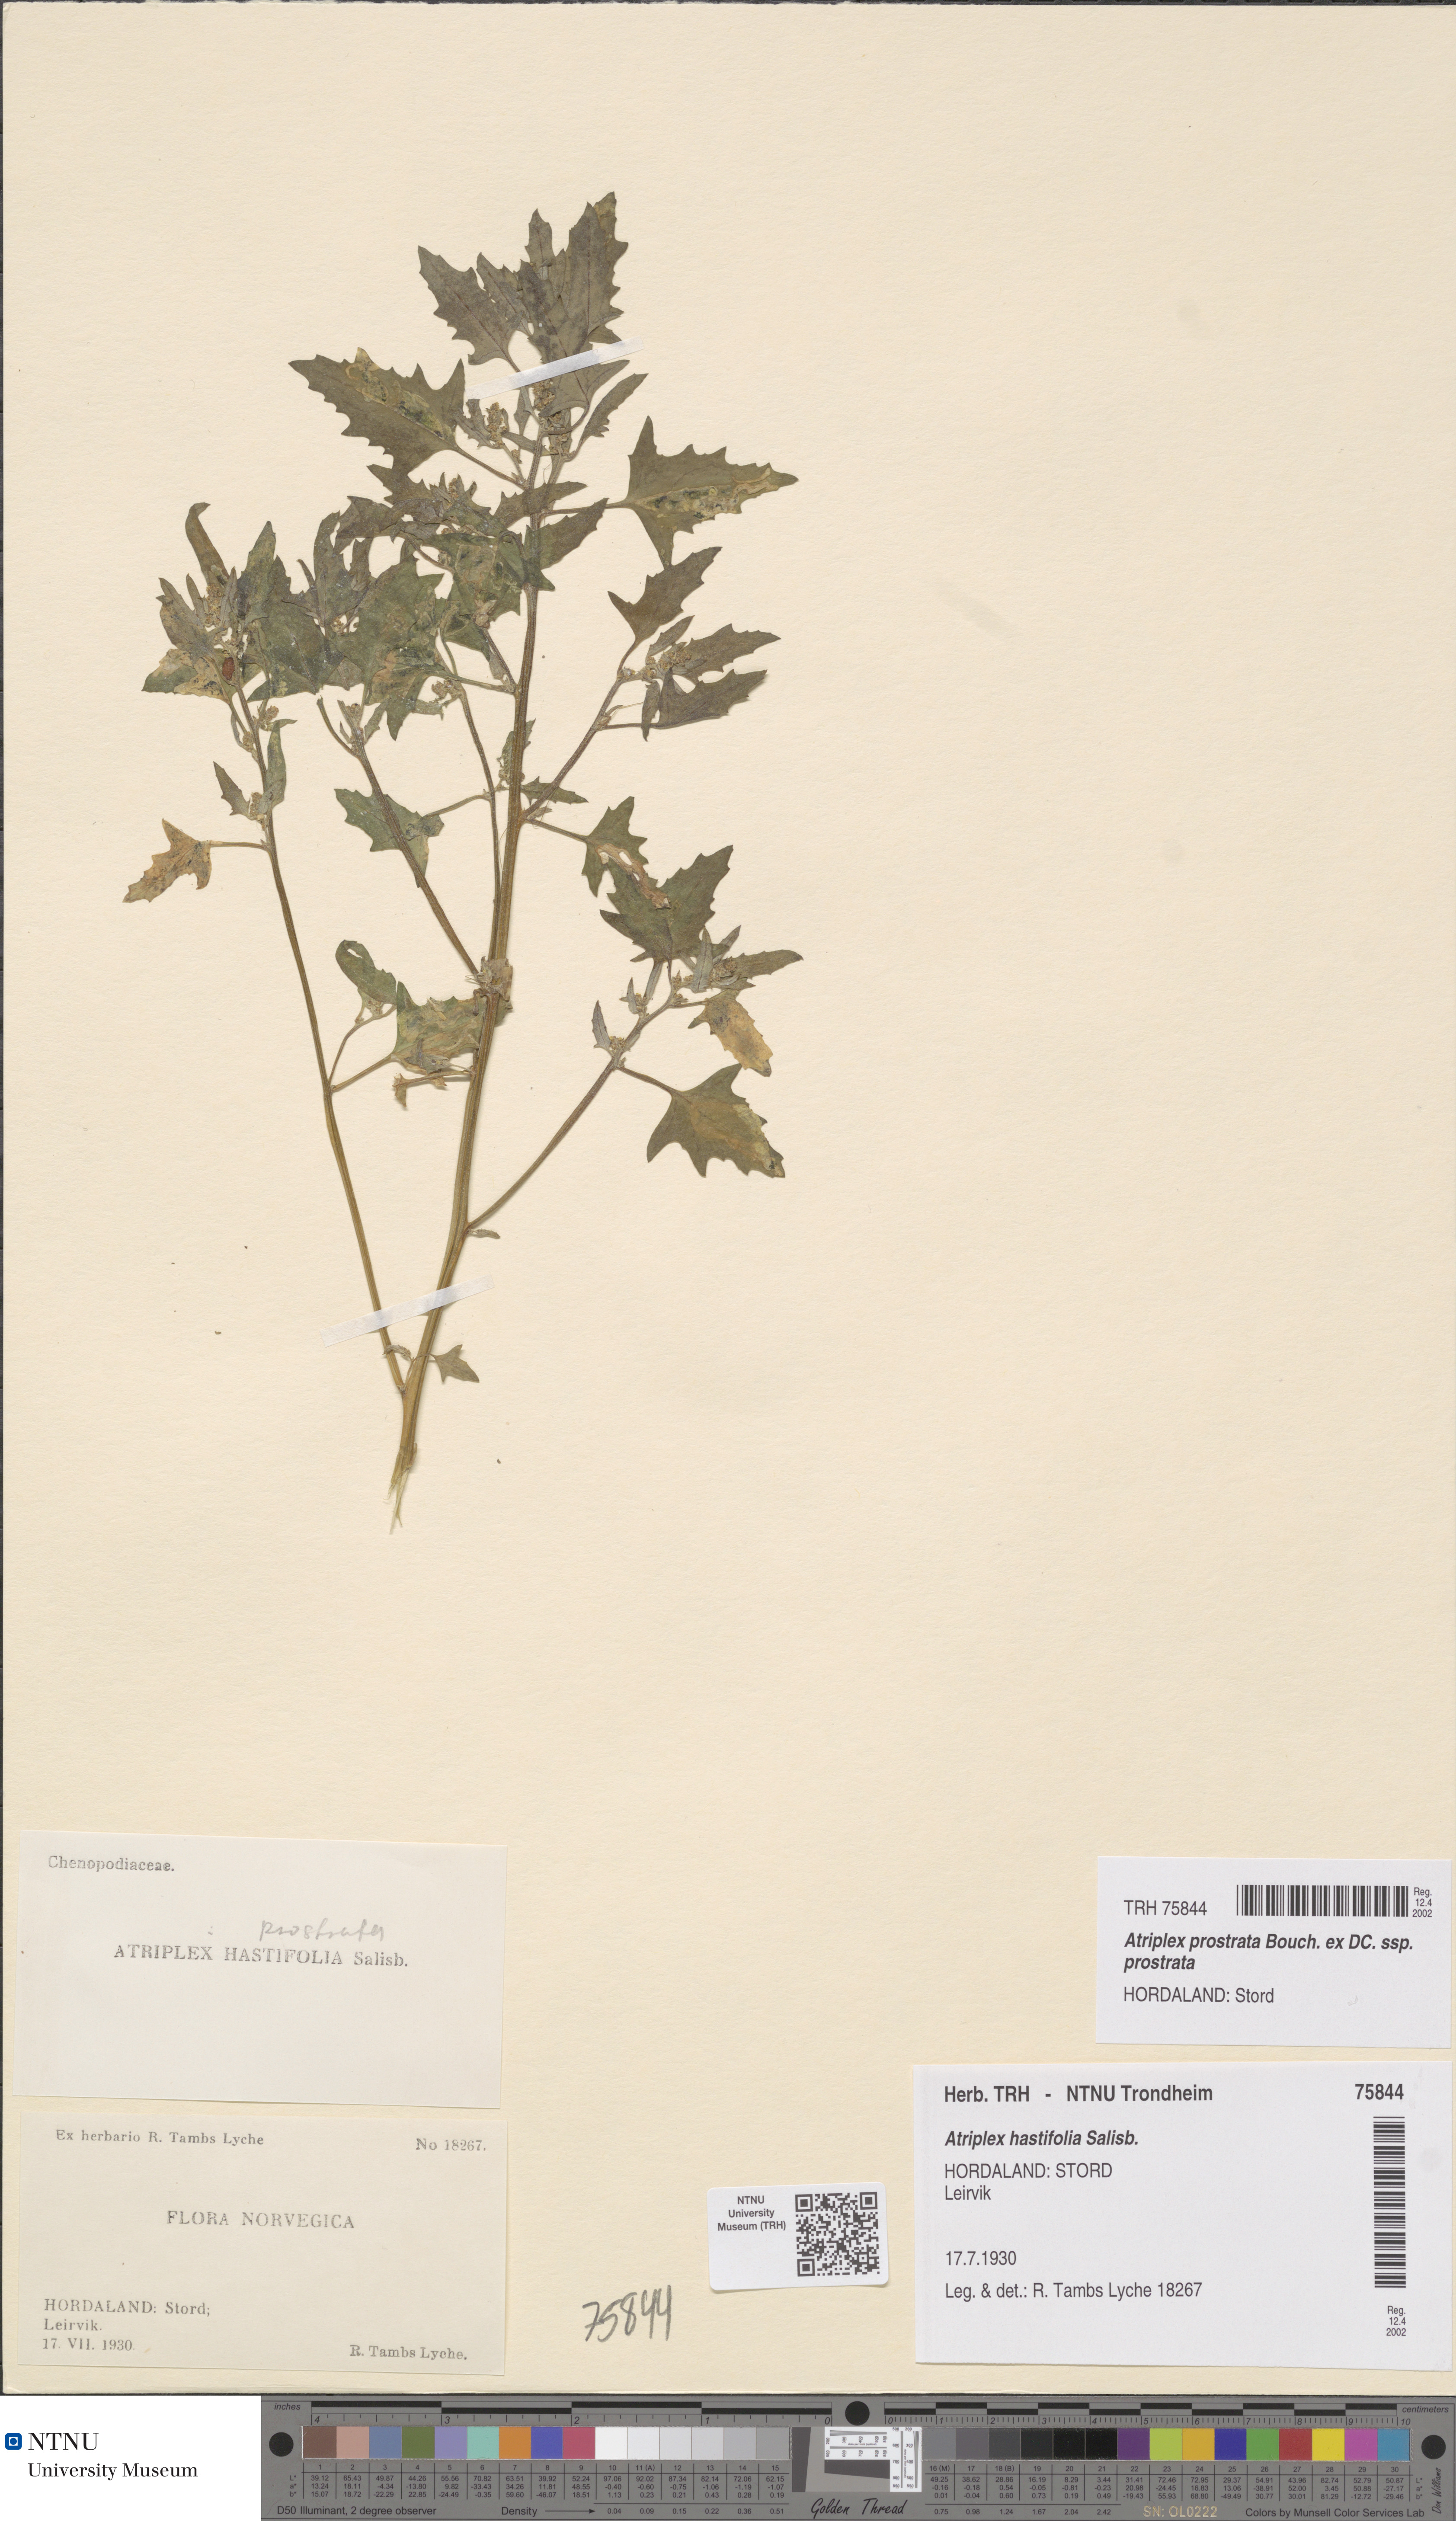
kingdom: Plantae
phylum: Tracheophyta
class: Magnoliopsida
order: Caryophyllales
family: Amaranthaceae
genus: Atriplex
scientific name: Atriplex prostrata
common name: Spear-leaved orache
